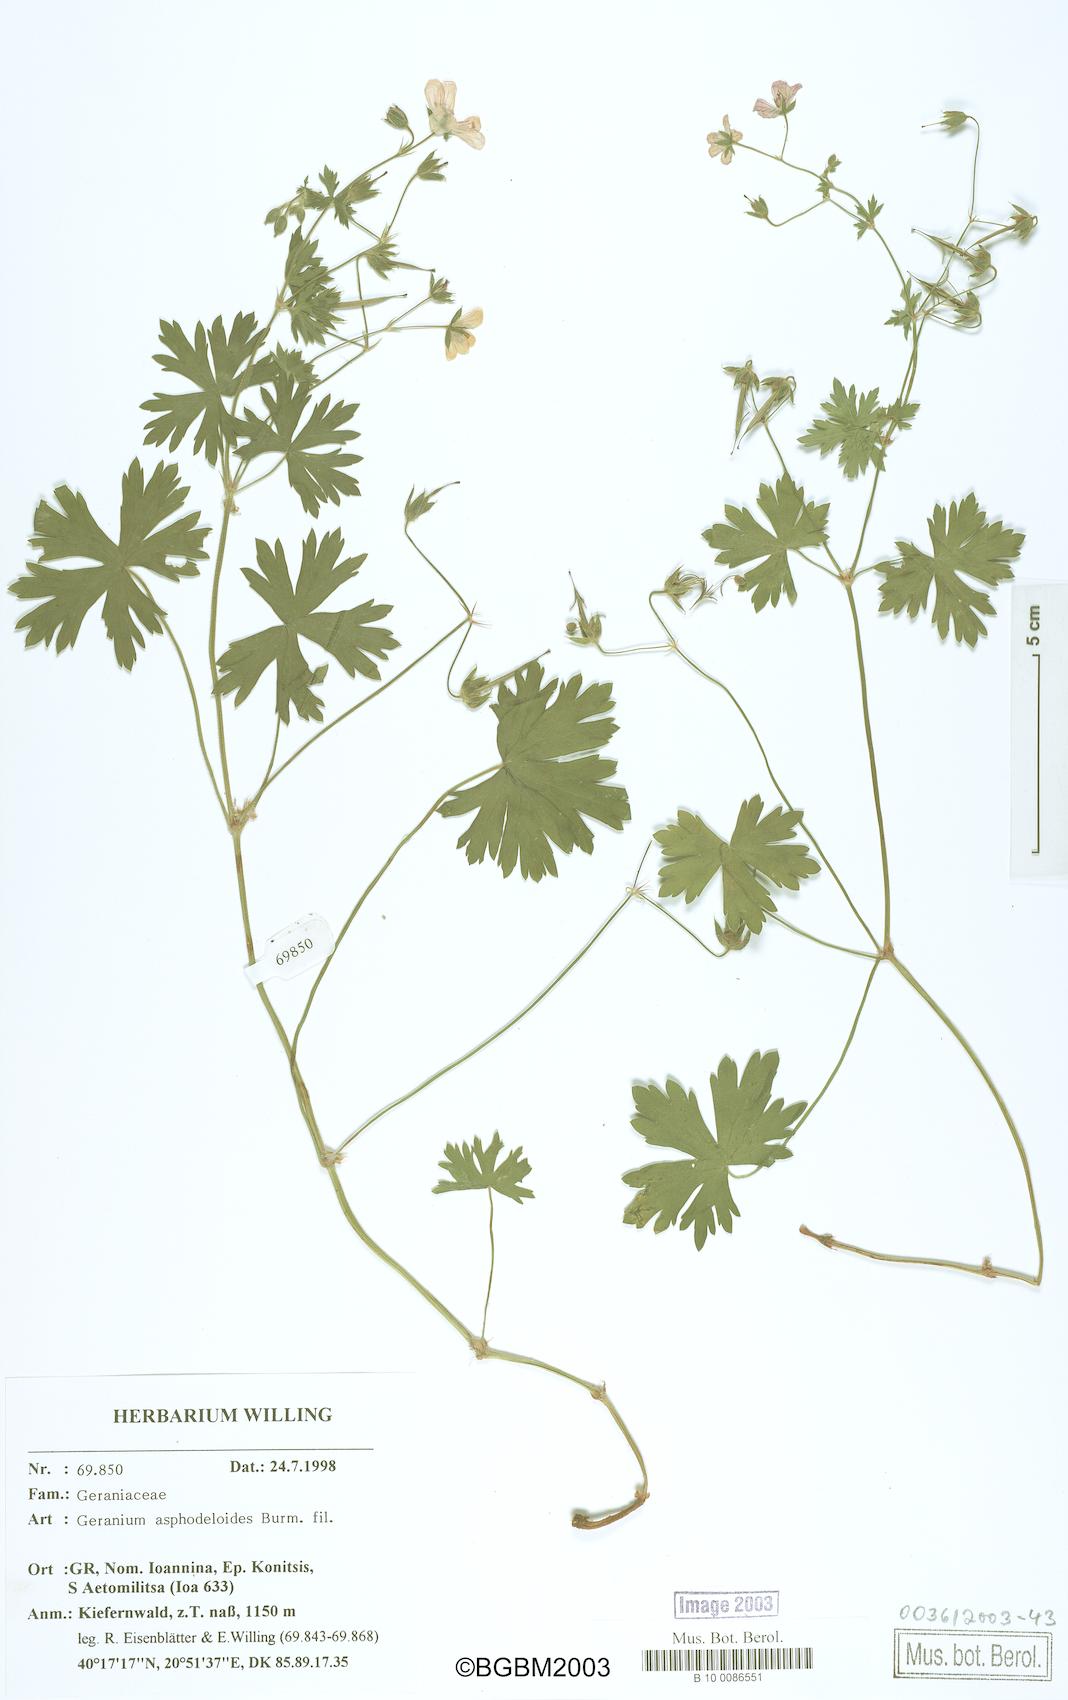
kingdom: Plantae
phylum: Tracheophyta
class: Magnoliopsida
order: Geraniales
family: Geraniaceae
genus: Geranium
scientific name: Geranium asphodeloides
